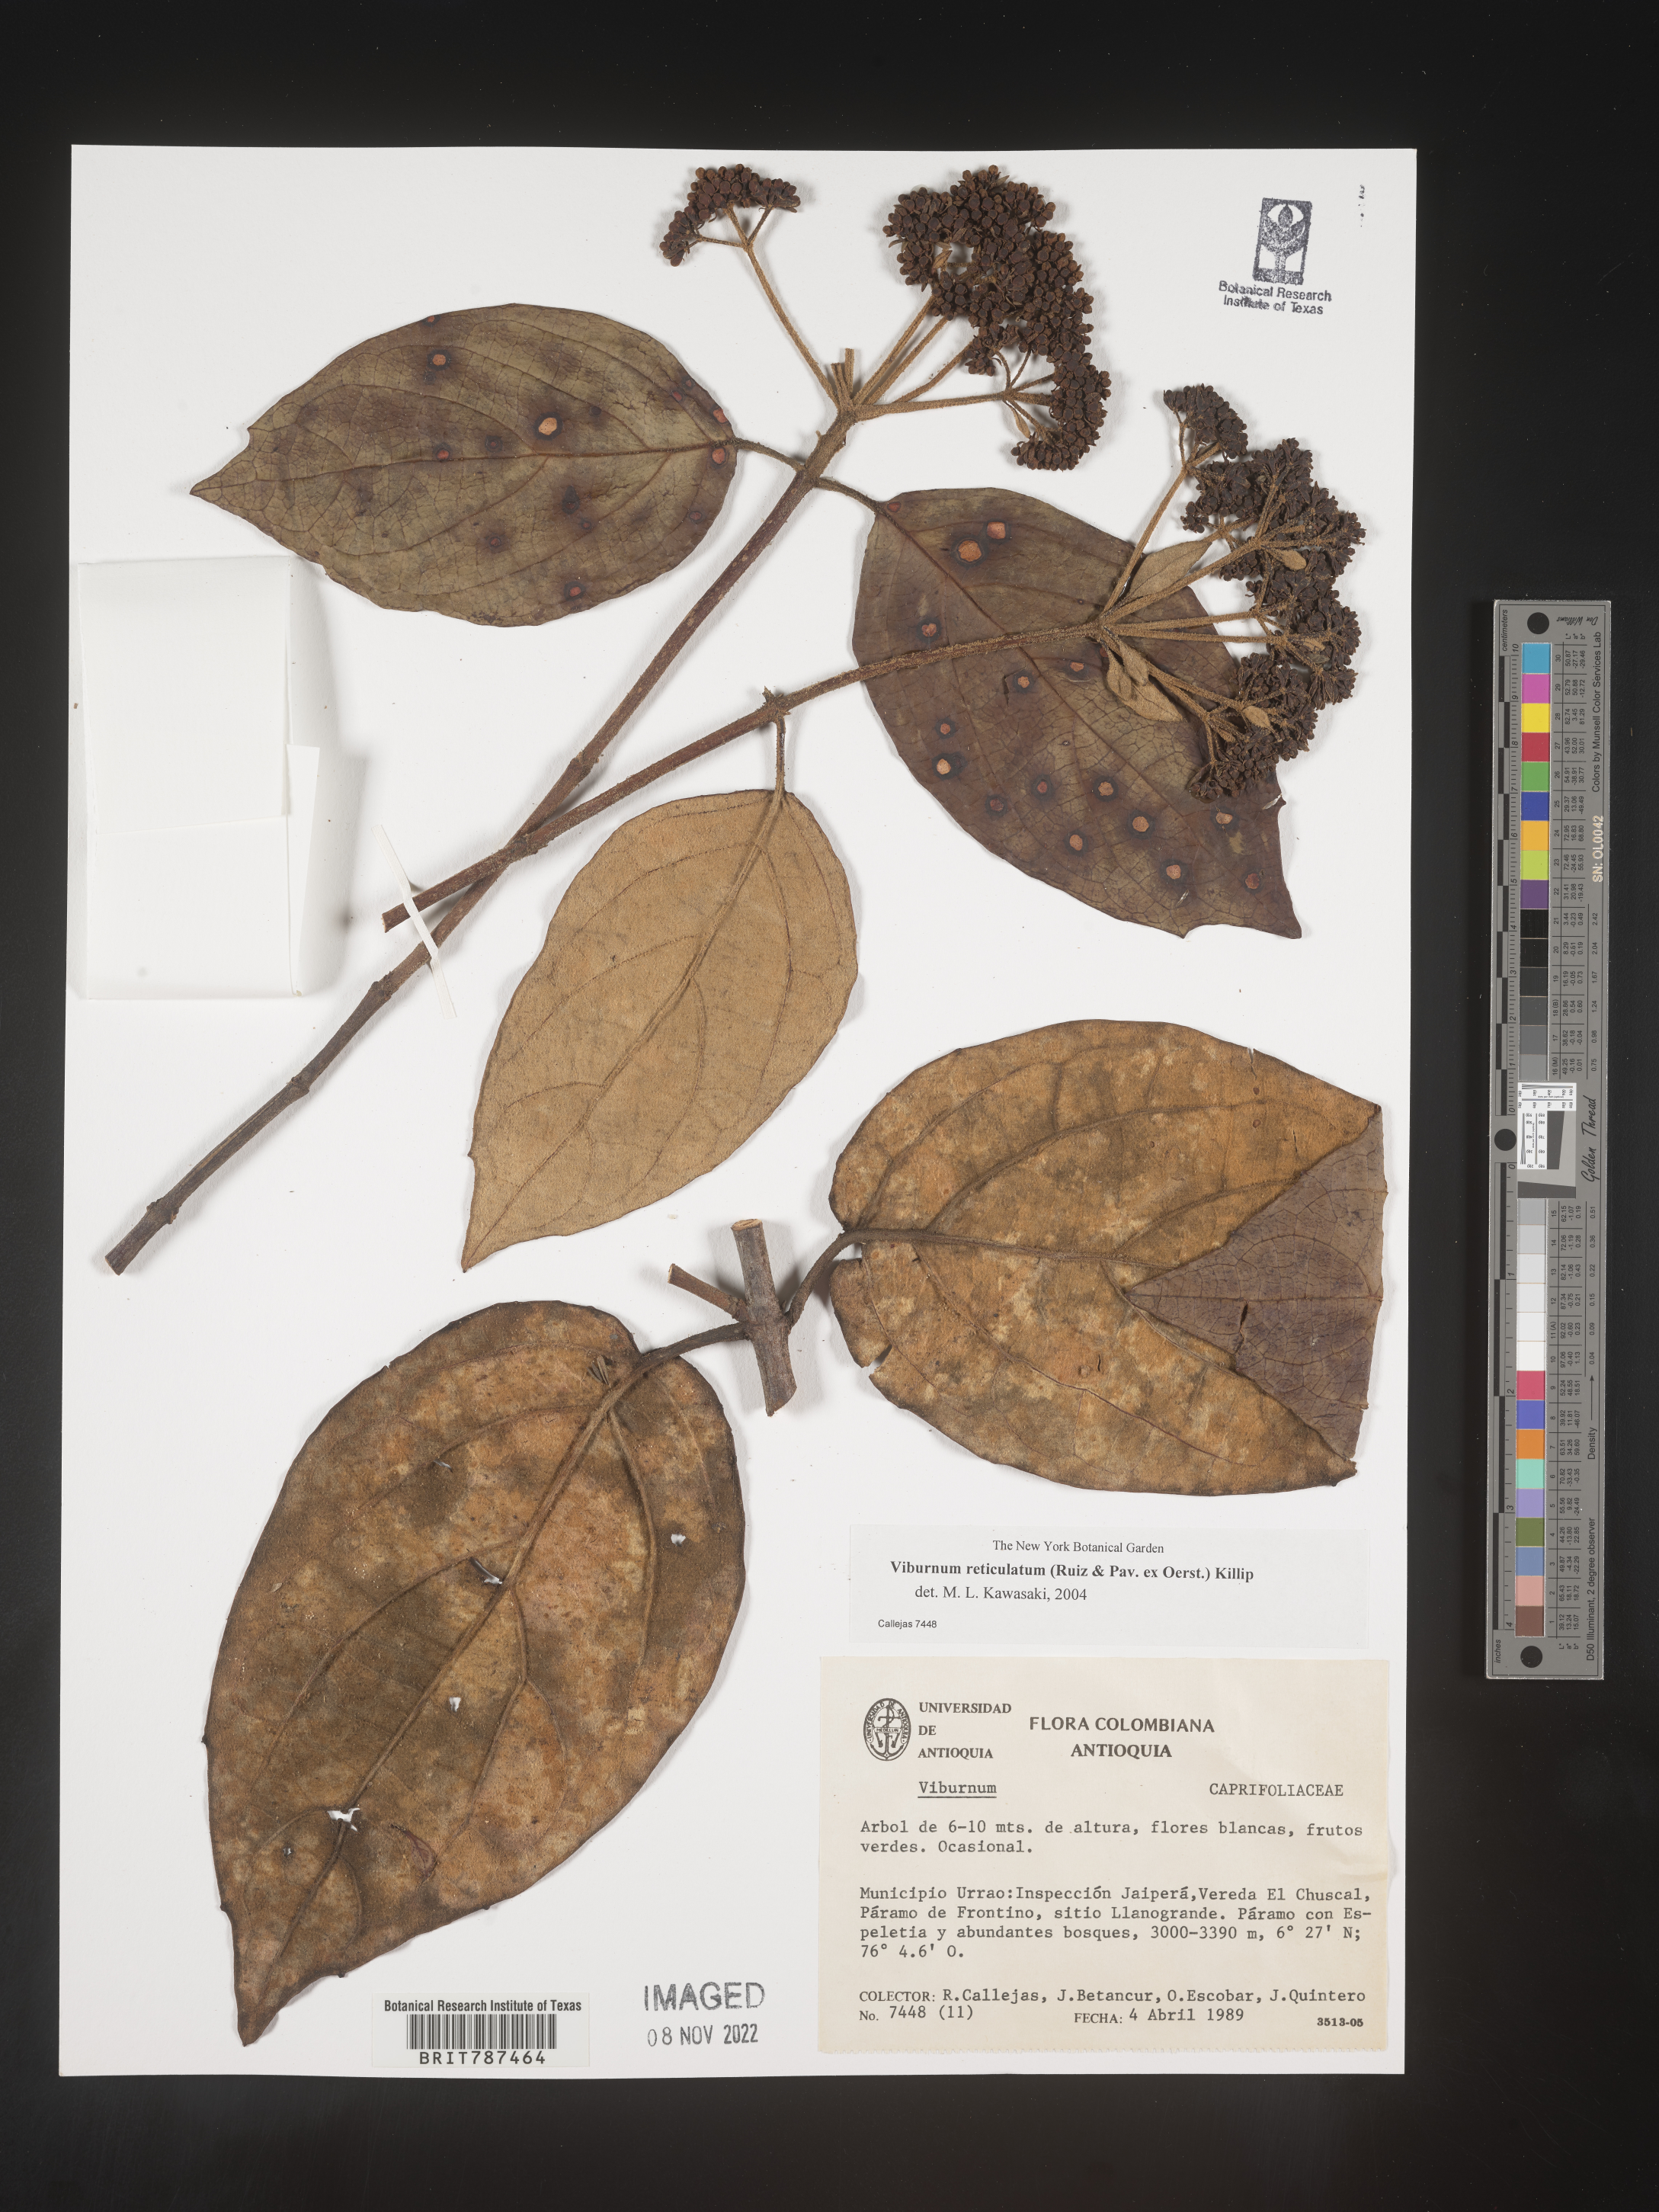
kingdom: Plantae
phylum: Tracheophyta
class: Magnoliopsida
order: Dipsacales
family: Viburnaceae
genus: Viburnum
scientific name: Viburnum
